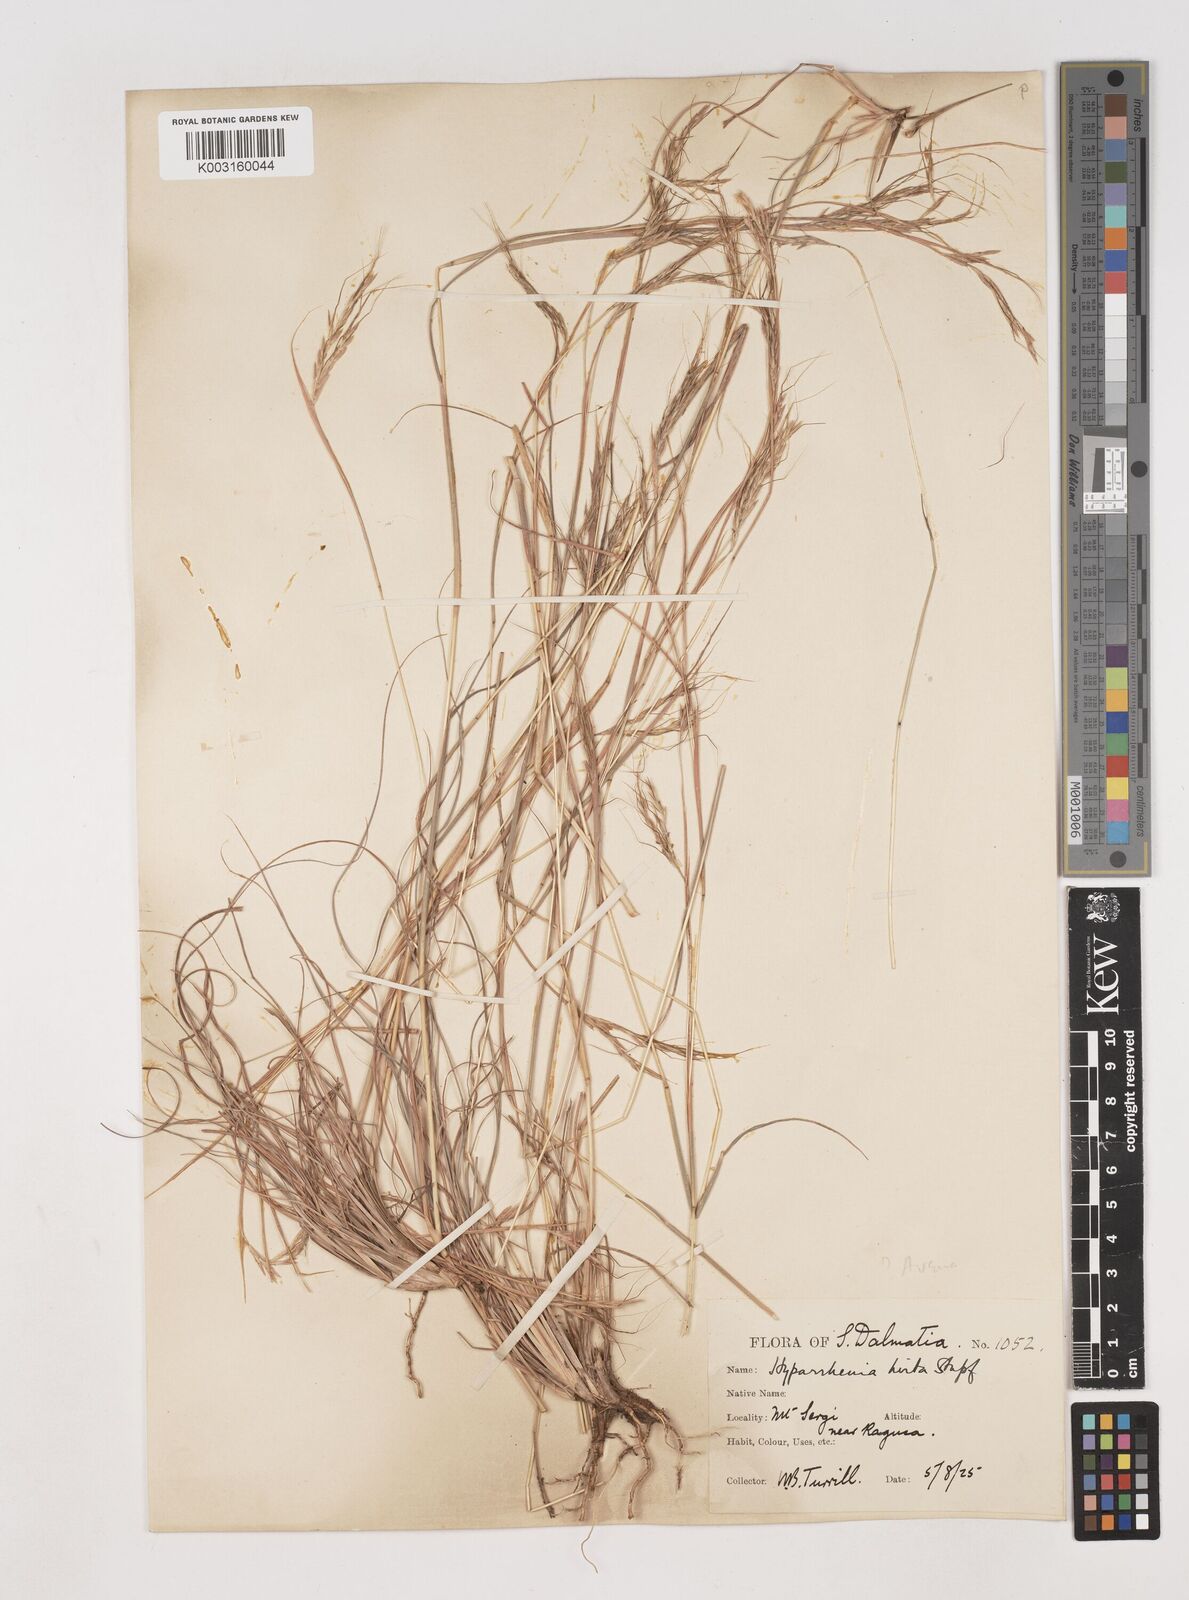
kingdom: Plantae
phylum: Tracheophyta
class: Liliopsida
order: Poales
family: Poaceae
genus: Hyparrhenia
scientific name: Hyparrhenia hirta
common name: Thatching grass
